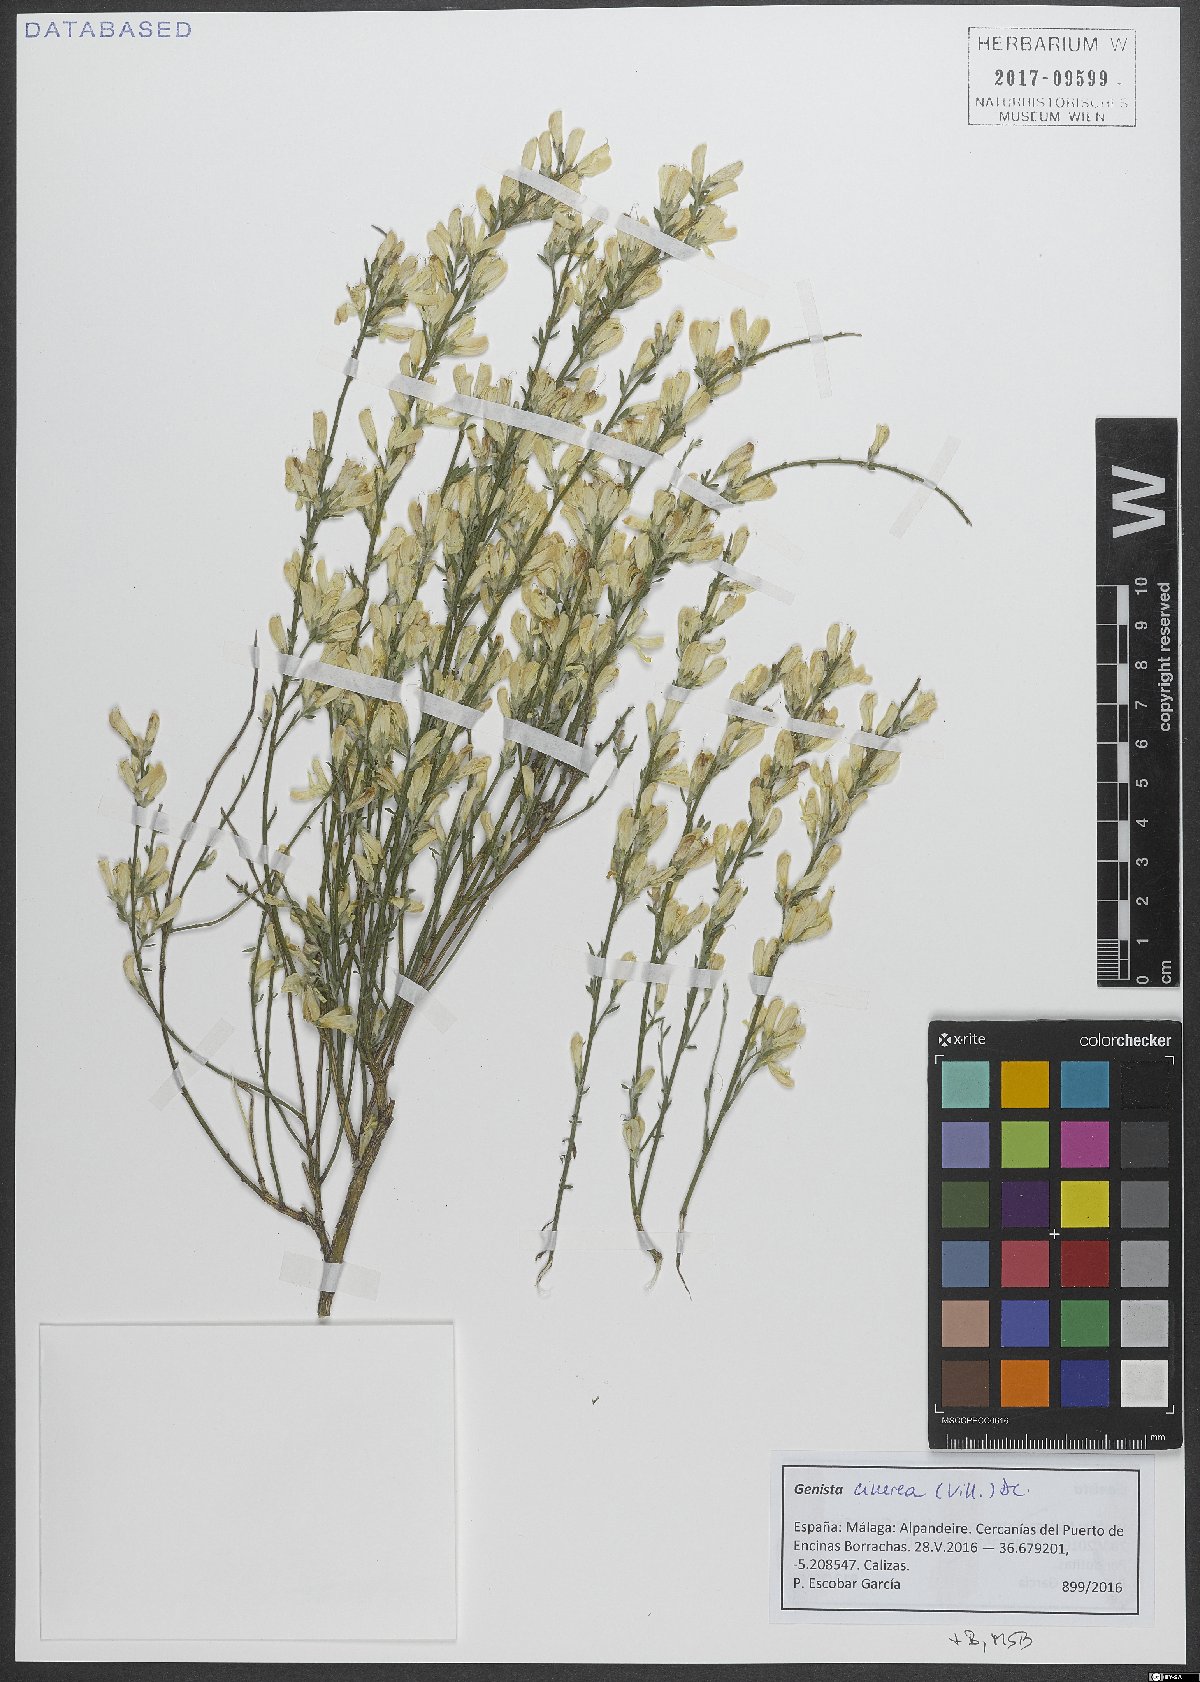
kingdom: Plantae
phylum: Tracheophyta
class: Magnoliopsida
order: Fabales
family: Fabaceae
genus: Genista
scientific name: Genista cinerea
